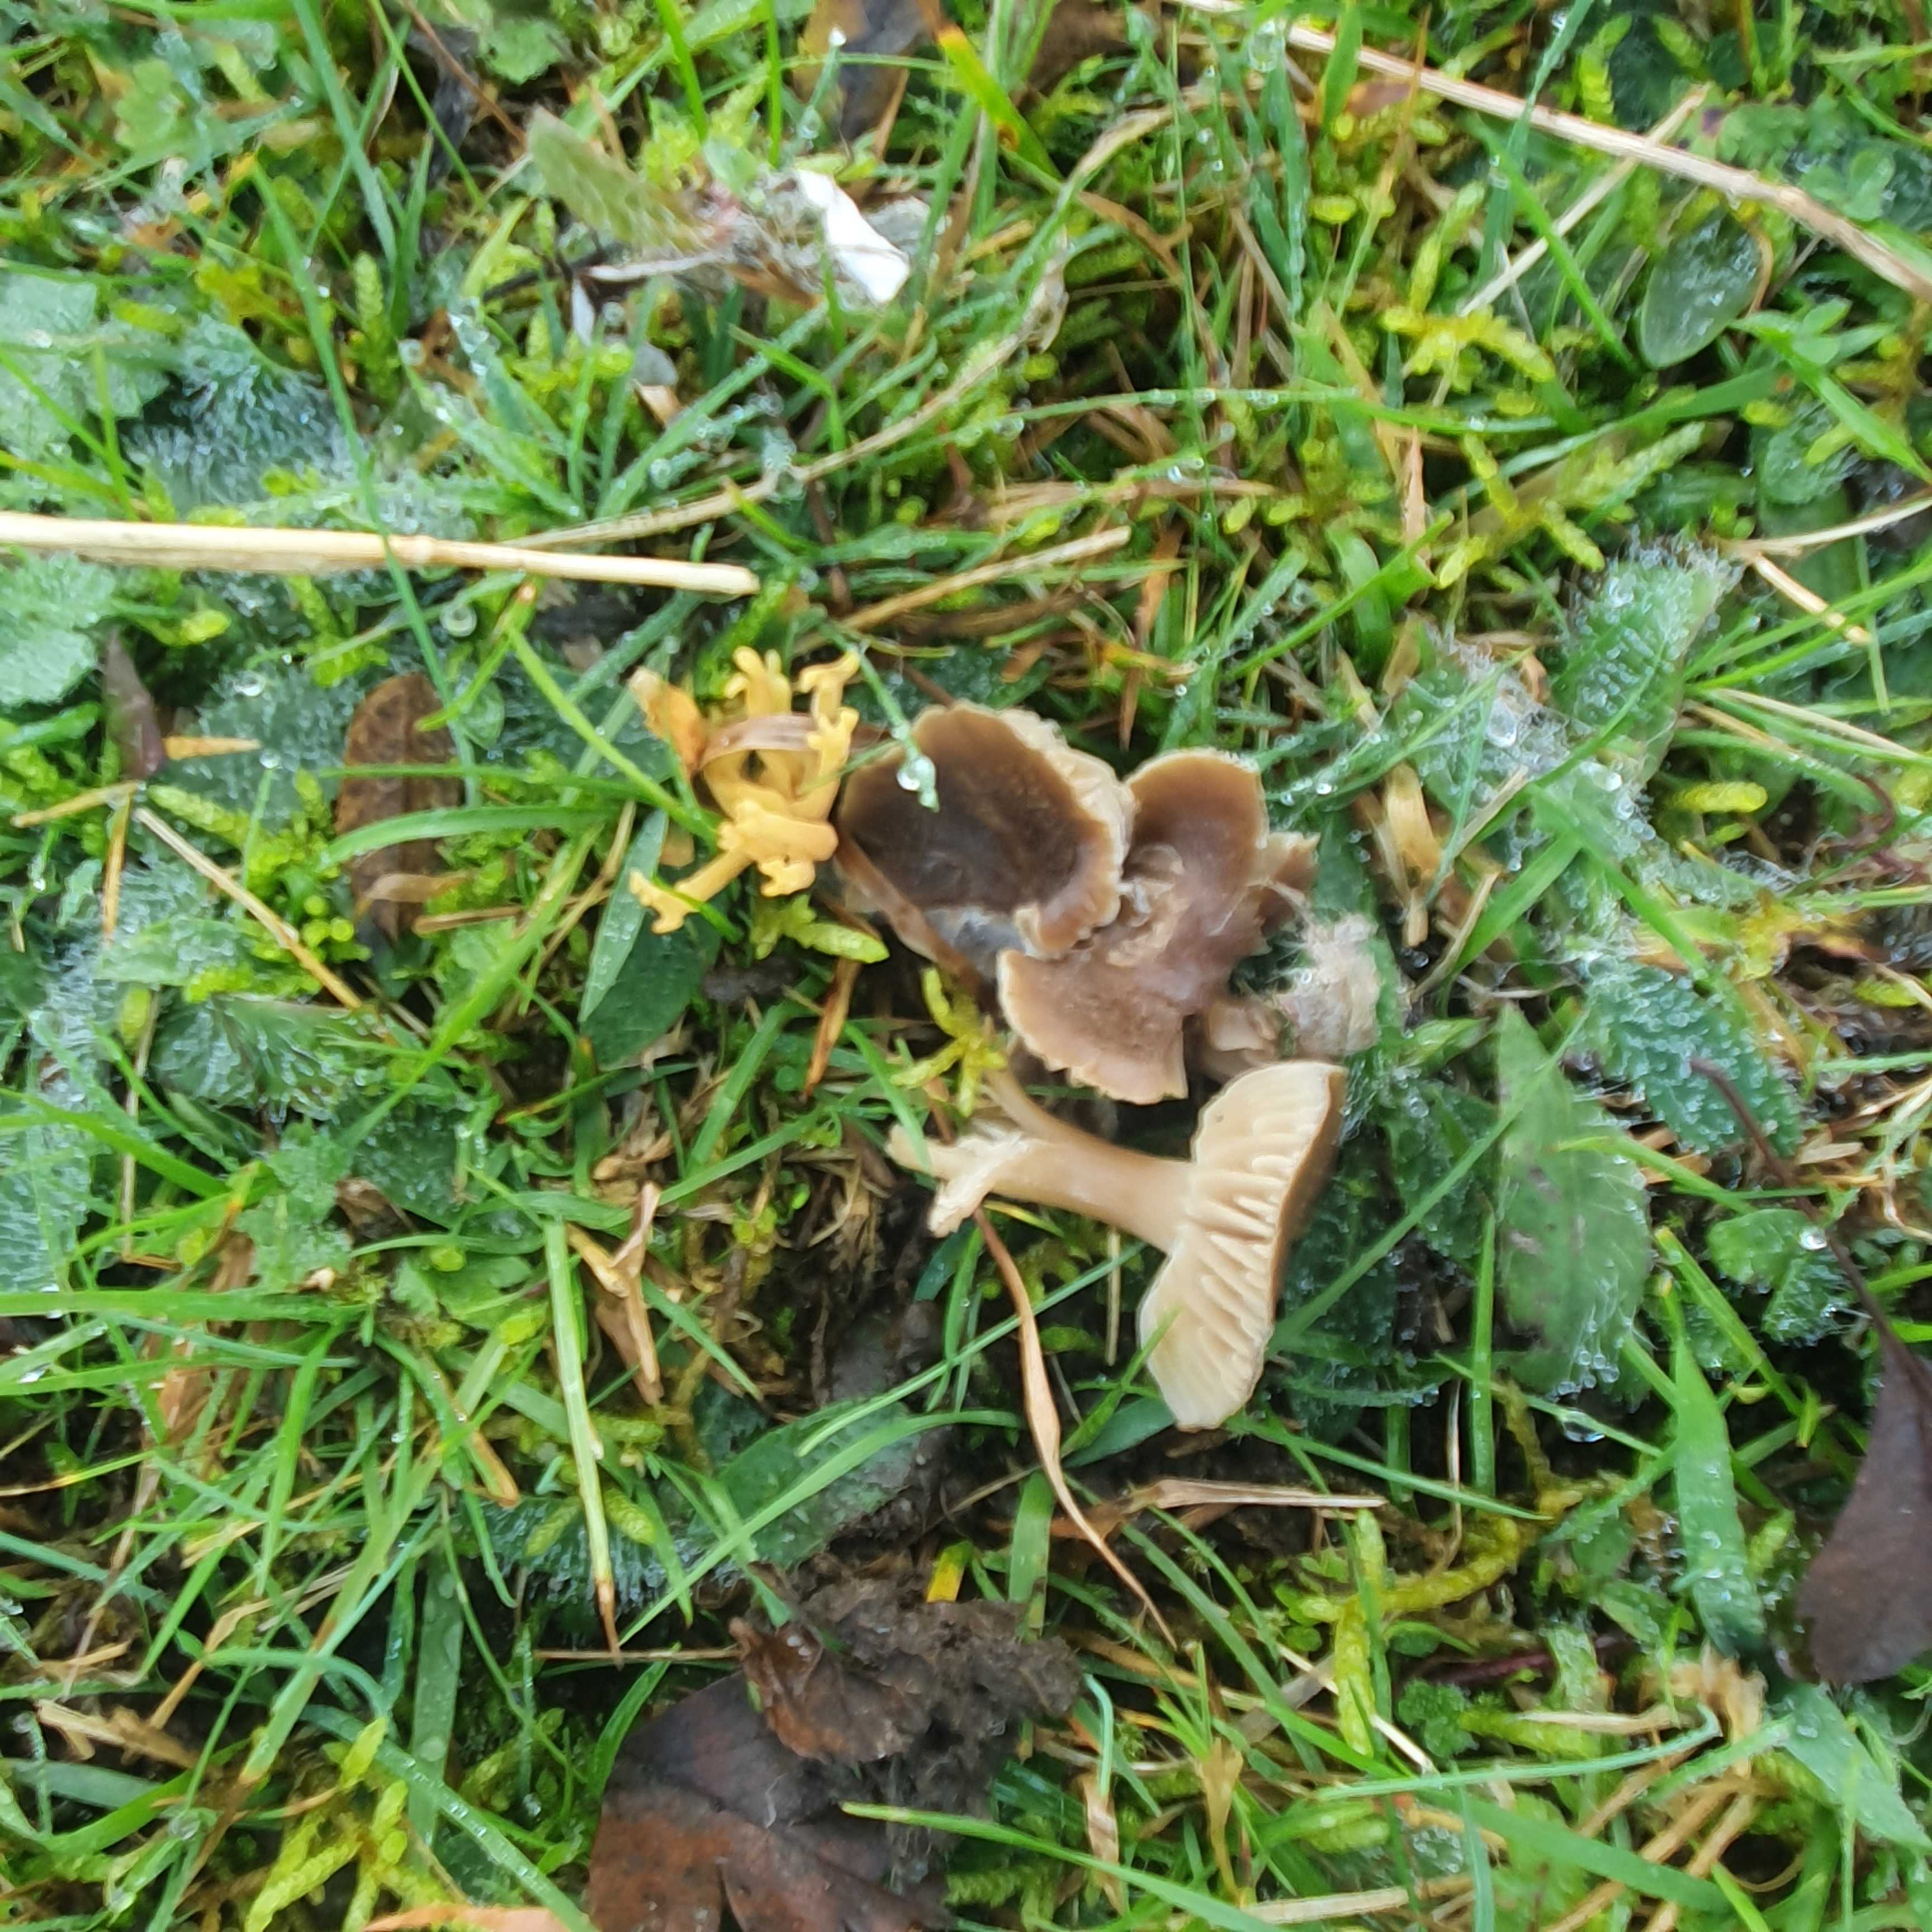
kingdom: Fungi
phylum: Basidiomycota
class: Agaricomycetes
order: Agaricales
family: Hygrophoraceae
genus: Neohygrocybe
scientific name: Neohygrocybe nitrata
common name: stinkende vokshat
